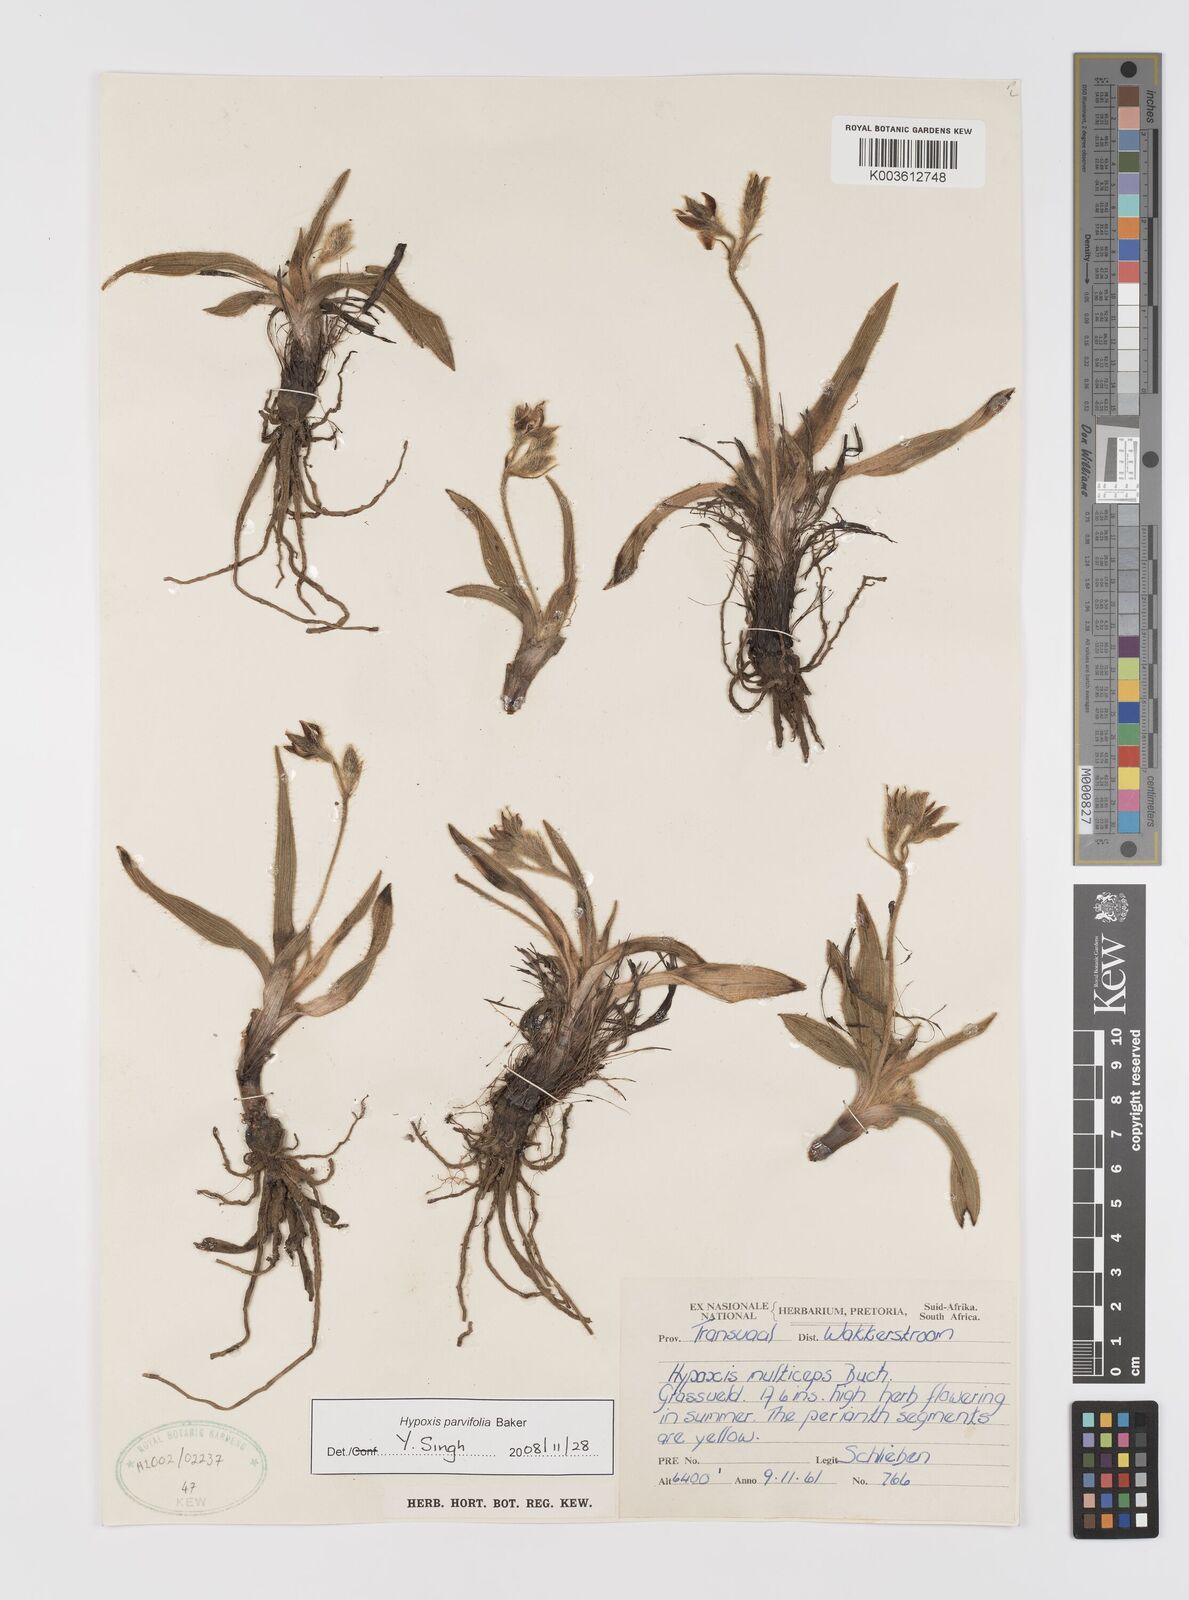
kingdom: Plantae
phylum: Tracheophyta
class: Liliopsida
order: Asparagales
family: Hypoxidaceae
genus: Hypoxis
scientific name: Hypoxis parvifolia
